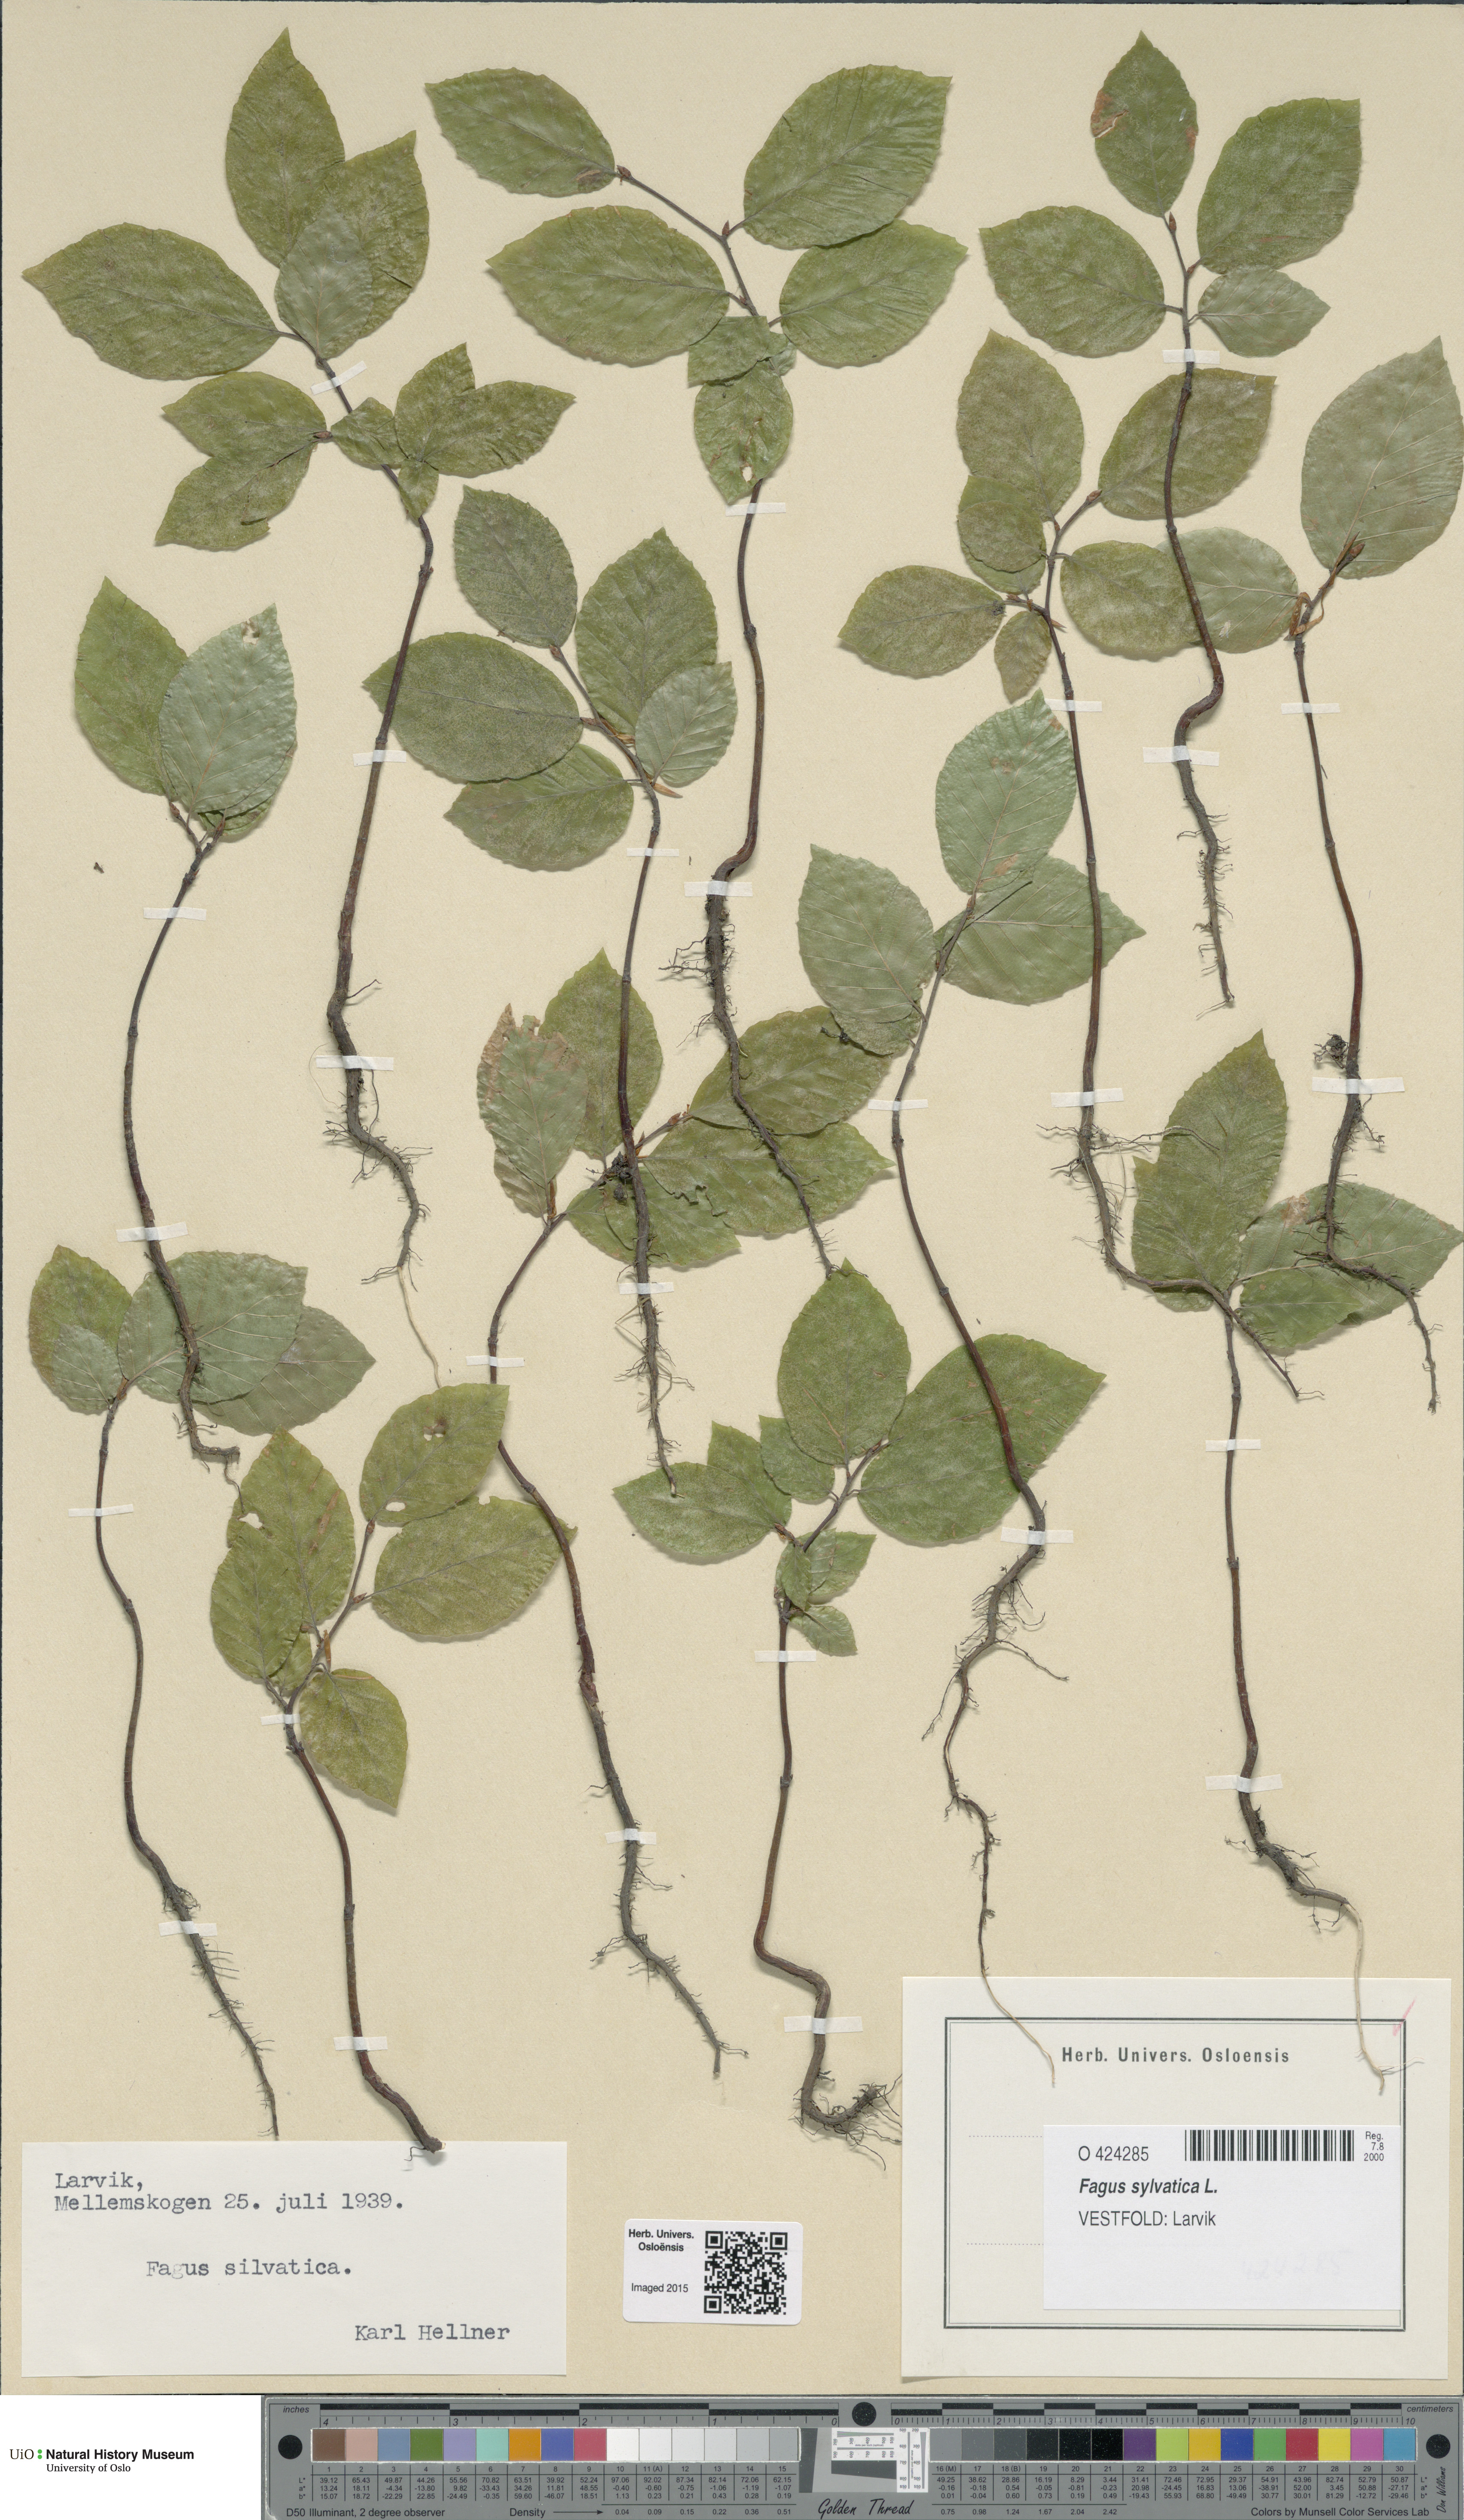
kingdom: Plantae
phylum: Tracheophyta
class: Magnoliopsida
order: Fagales
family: Fagaceae
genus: Fagus
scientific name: Fagus sylvatica
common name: Beech
